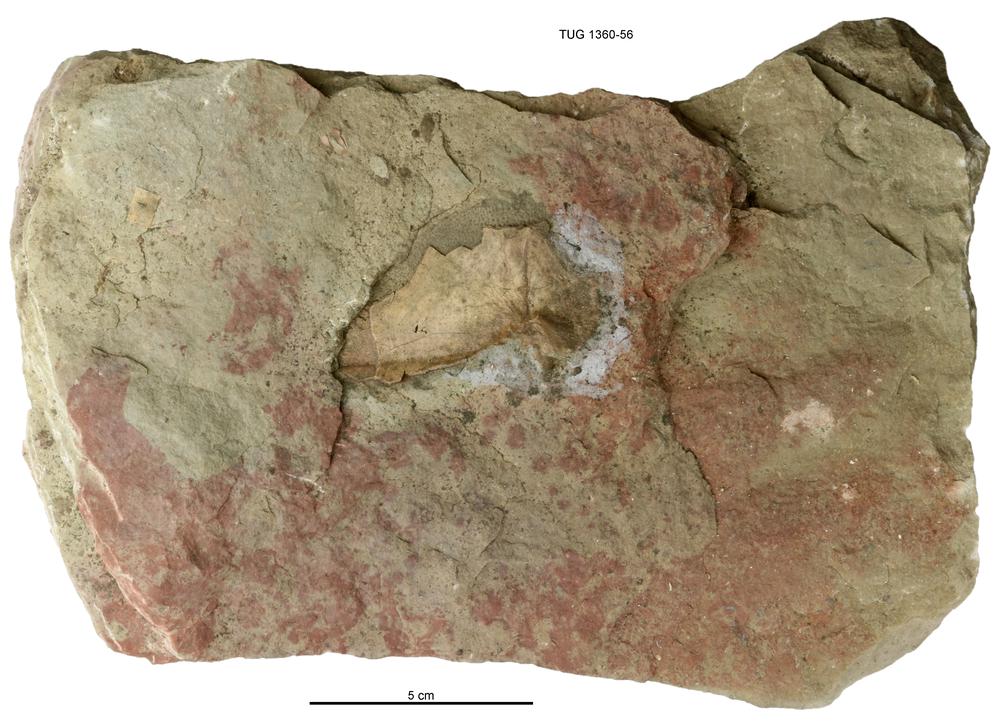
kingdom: Animalia
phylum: Chordata
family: Asterolepididae
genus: Asterolepis
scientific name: Asterolepis estonica
